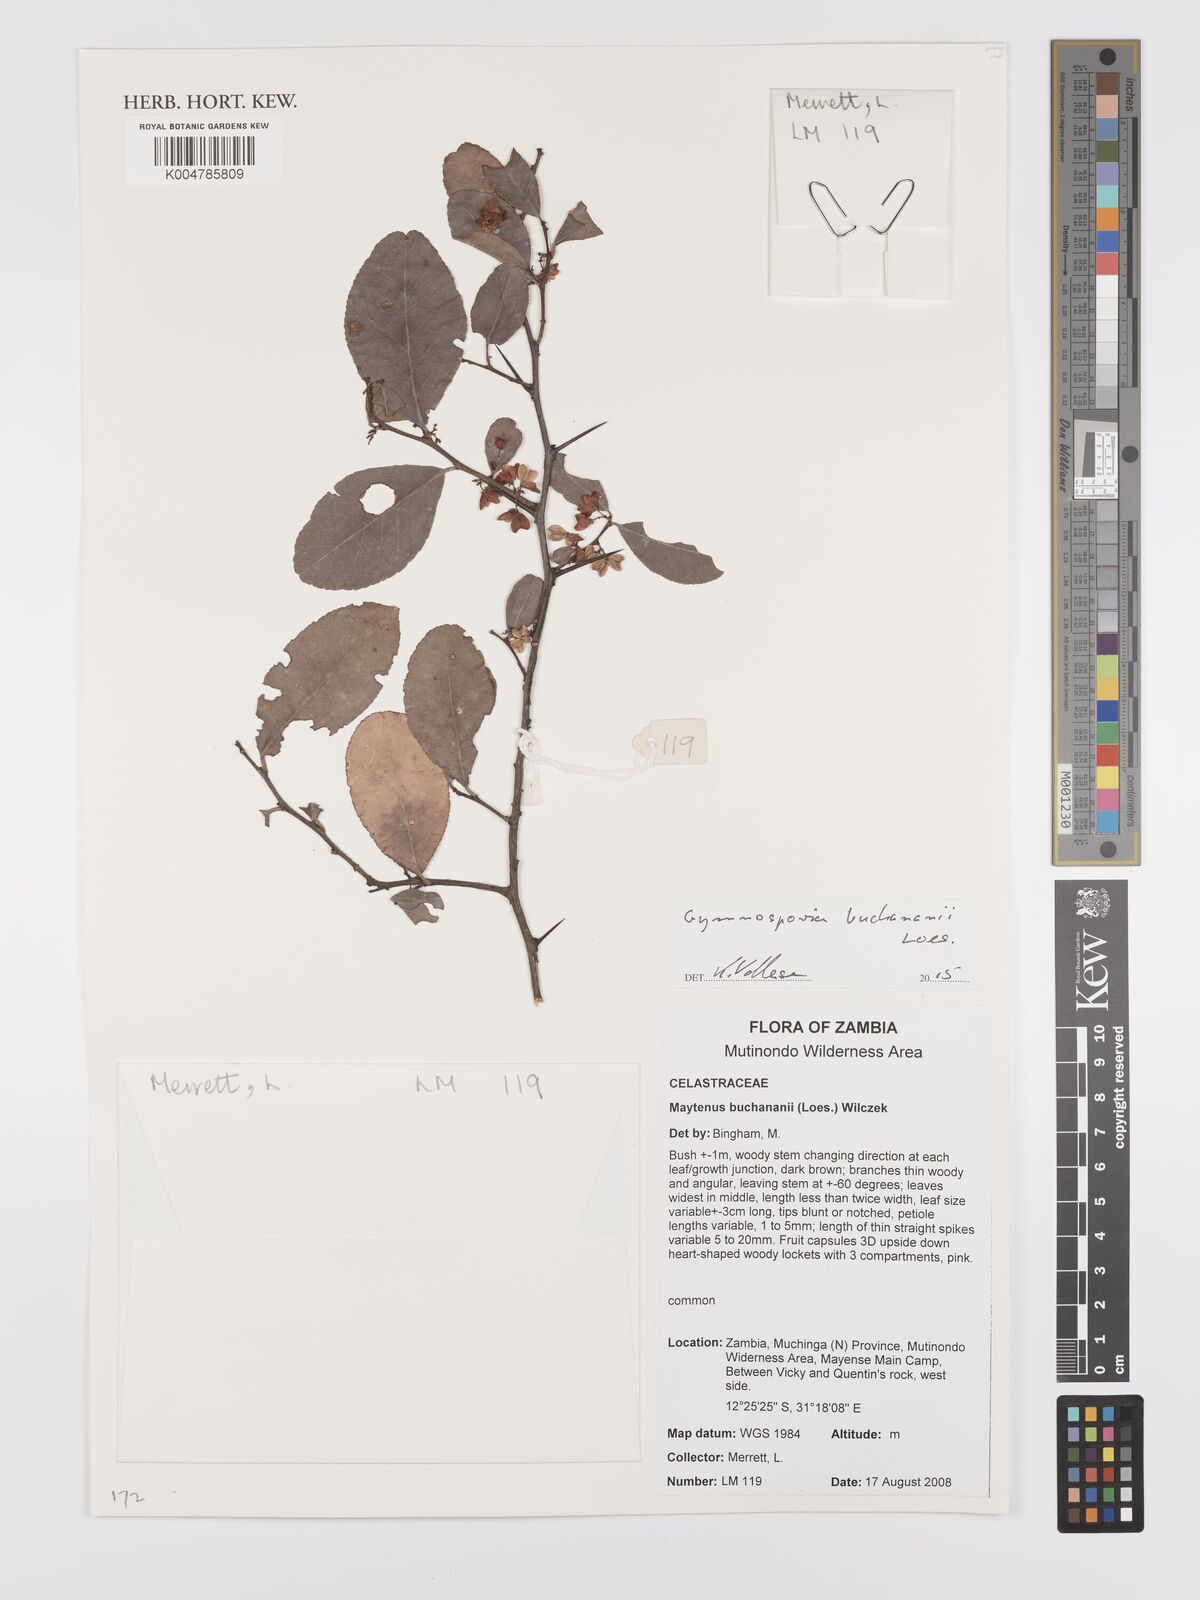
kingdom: Plantae
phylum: Tracheophyta
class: Magnoliopsida
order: Celastrales
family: Celastraceae
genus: Gymnosporia
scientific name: Gymnosporia buchananii
